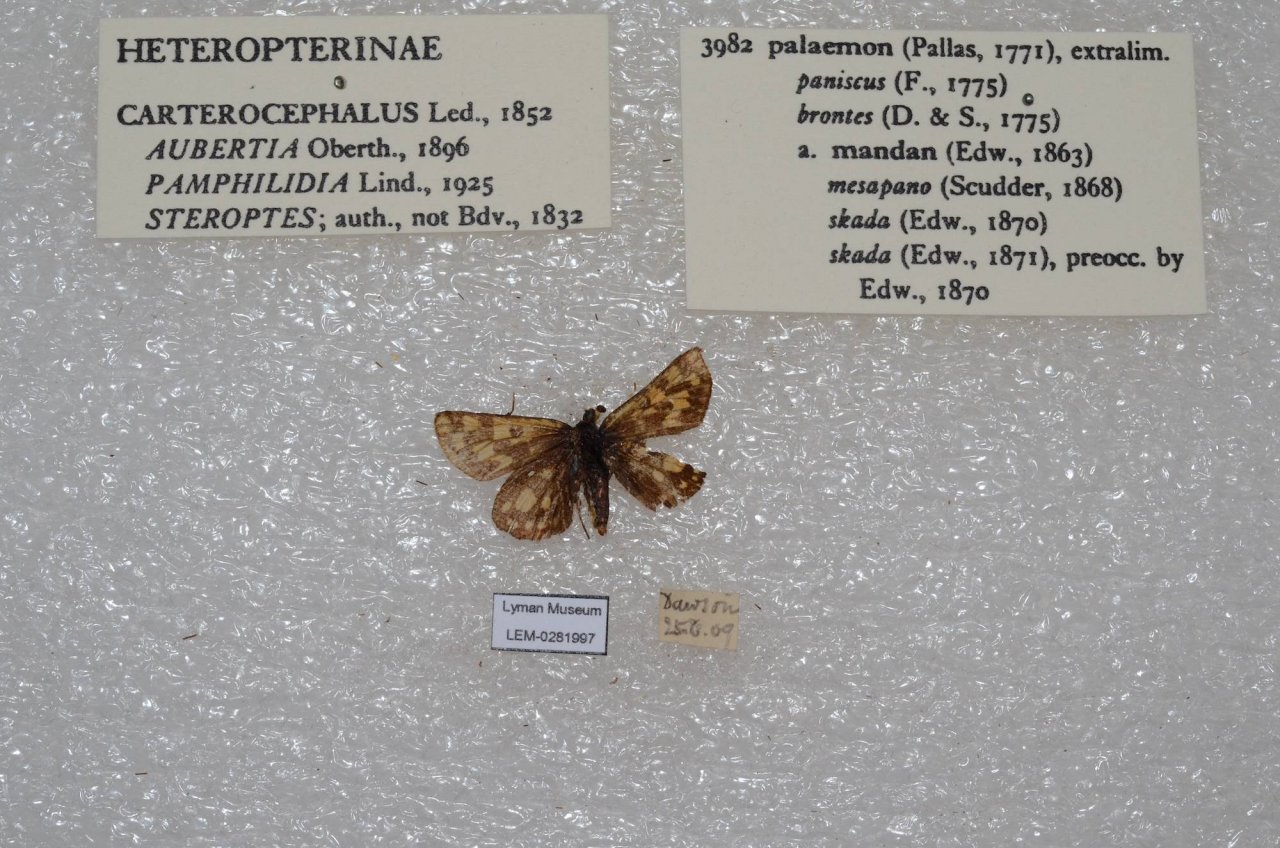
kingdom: Animalia
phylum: Arthropoda
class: Insecta
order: Lepidoptera
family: Hesperiidae
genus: Carterocephalus
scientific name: Carterocephalus palaemon
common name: Chequered Skipper
